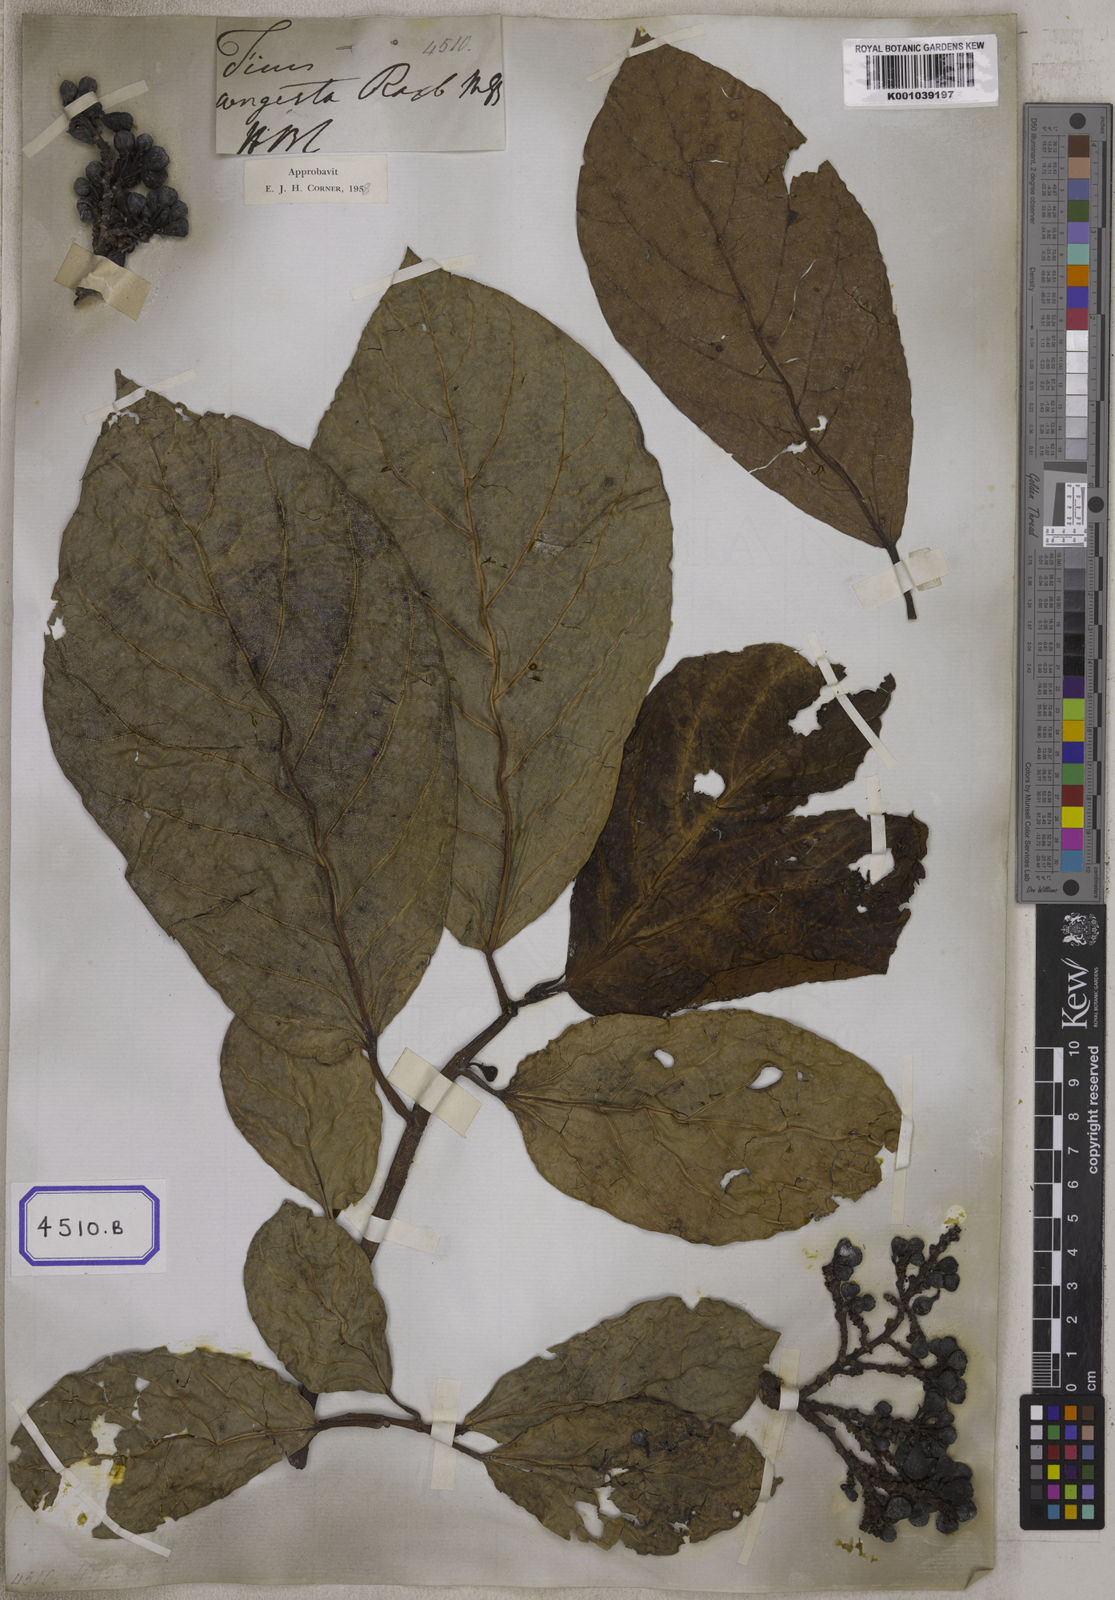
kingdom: Plantae
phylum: Tracheophyta
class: Magnoliopsida
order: Rosales
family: Moraceae
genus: Ficus
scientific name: Ficus congesta
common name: Cluster fig
